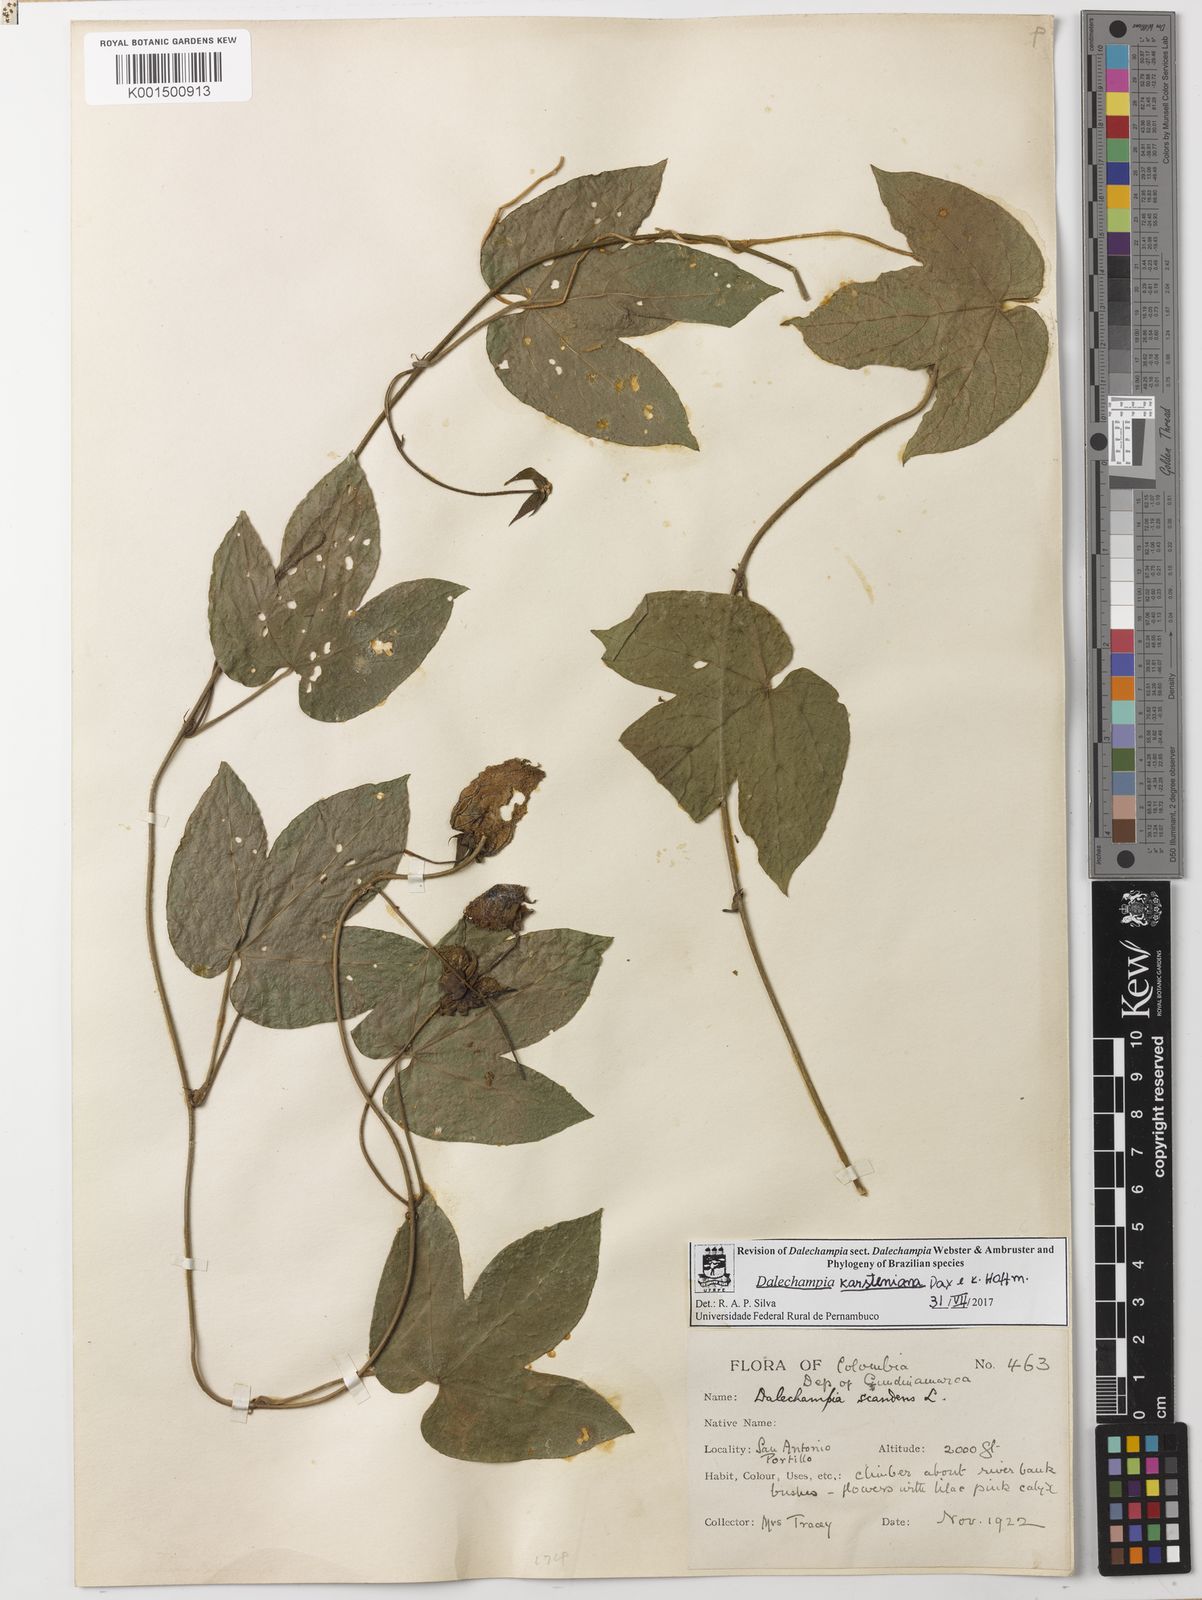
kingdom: Plantae
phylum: Tracheophyta
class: Magnoliopsida
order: Malpighiales
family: Euphorbiaceae
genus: Dalechampia
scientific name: Dalechampia colorata
